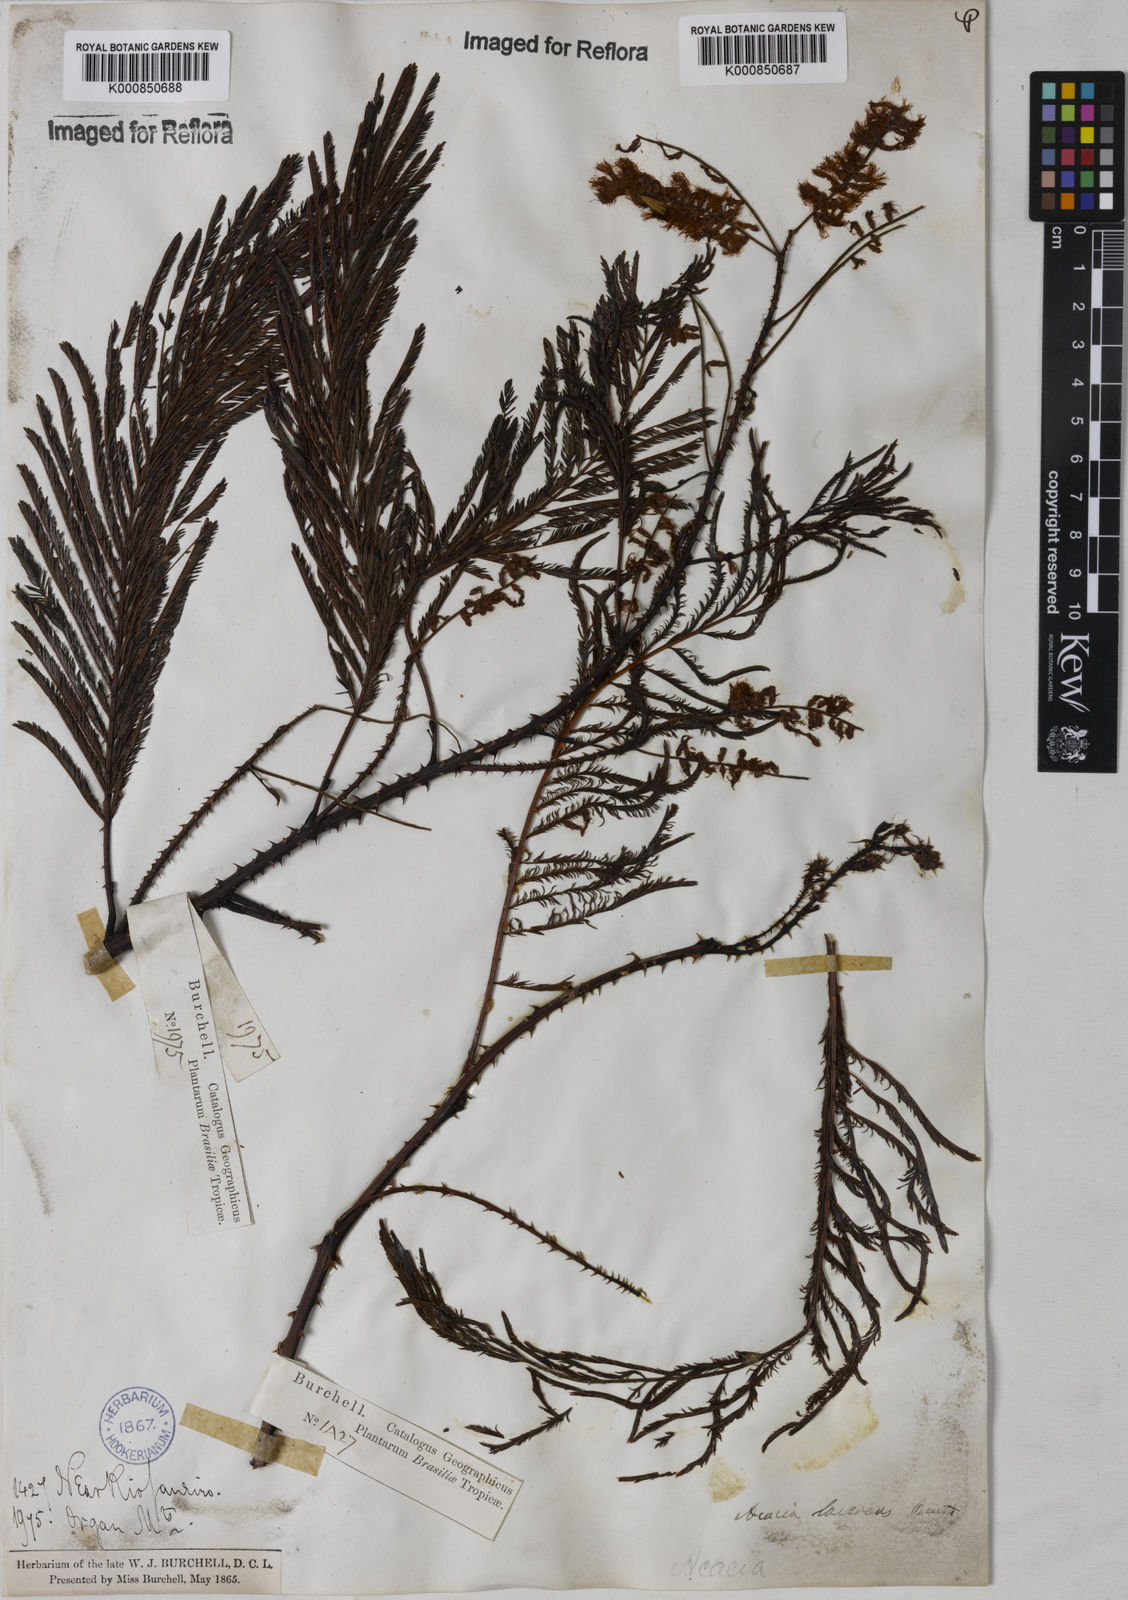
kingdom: Plantae
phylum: Tracheophyta
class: Magnoliopsida
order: Fabales
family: Fabaceae
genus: Senegalia
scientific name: Senegalia lacerans
